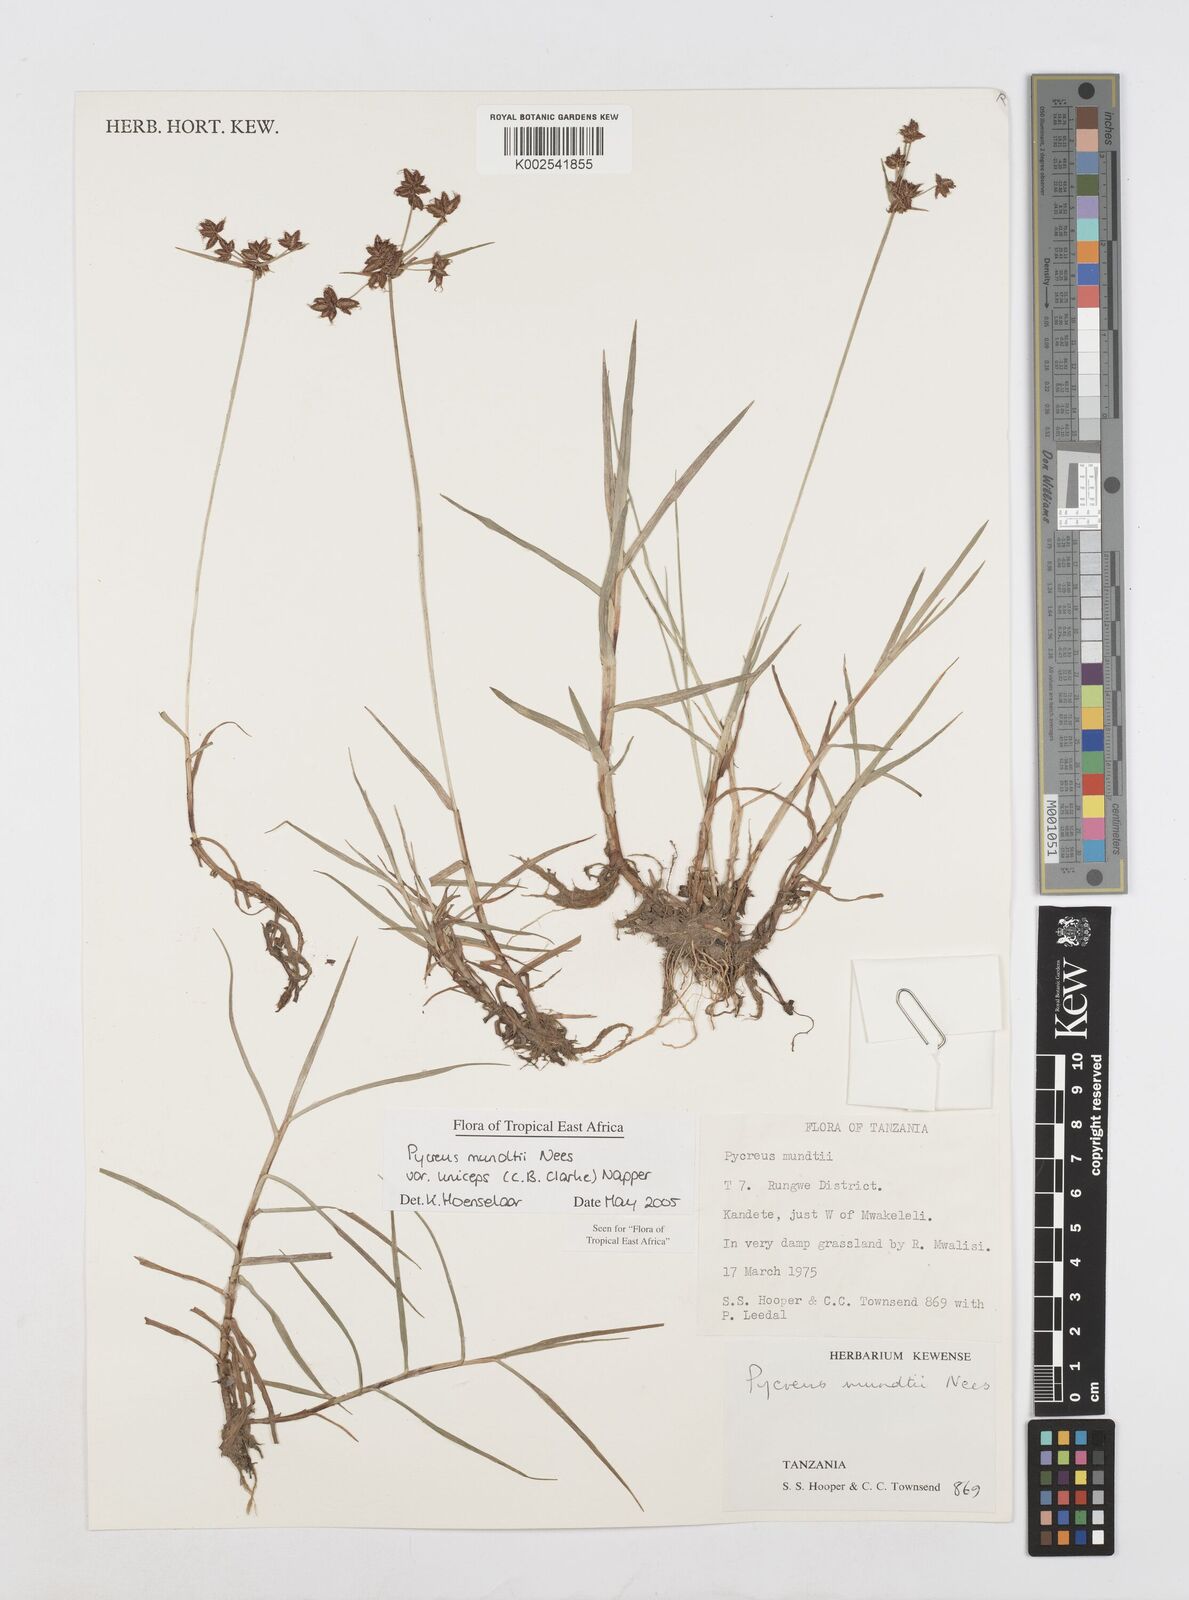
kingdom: Plantae
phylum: Tracheophyta
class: Liliopsida
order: Poales
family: Cyperaceae
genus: Cyperus
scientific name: Cyperus mundii
